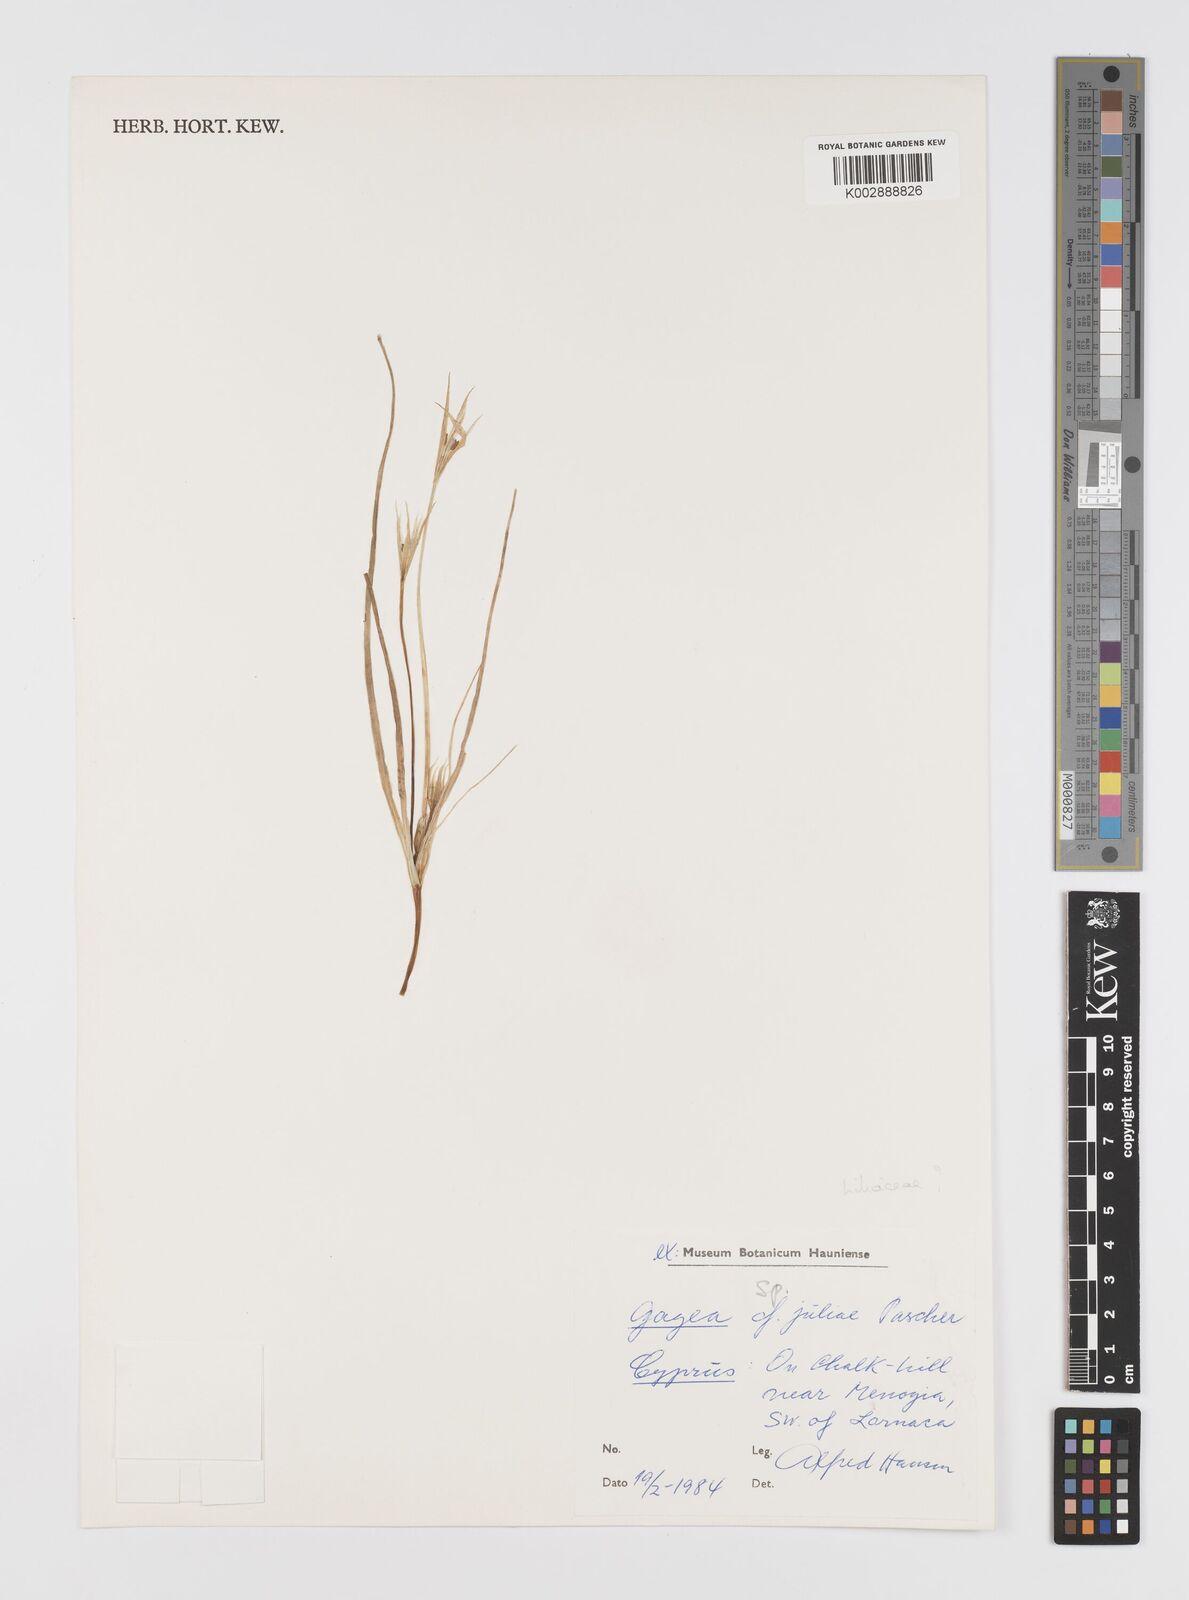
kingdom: Plantae
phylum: Tracheophyta
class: Liliopsida
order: Liliales
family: Liliaceae
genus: Gagea
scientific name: Gagea
